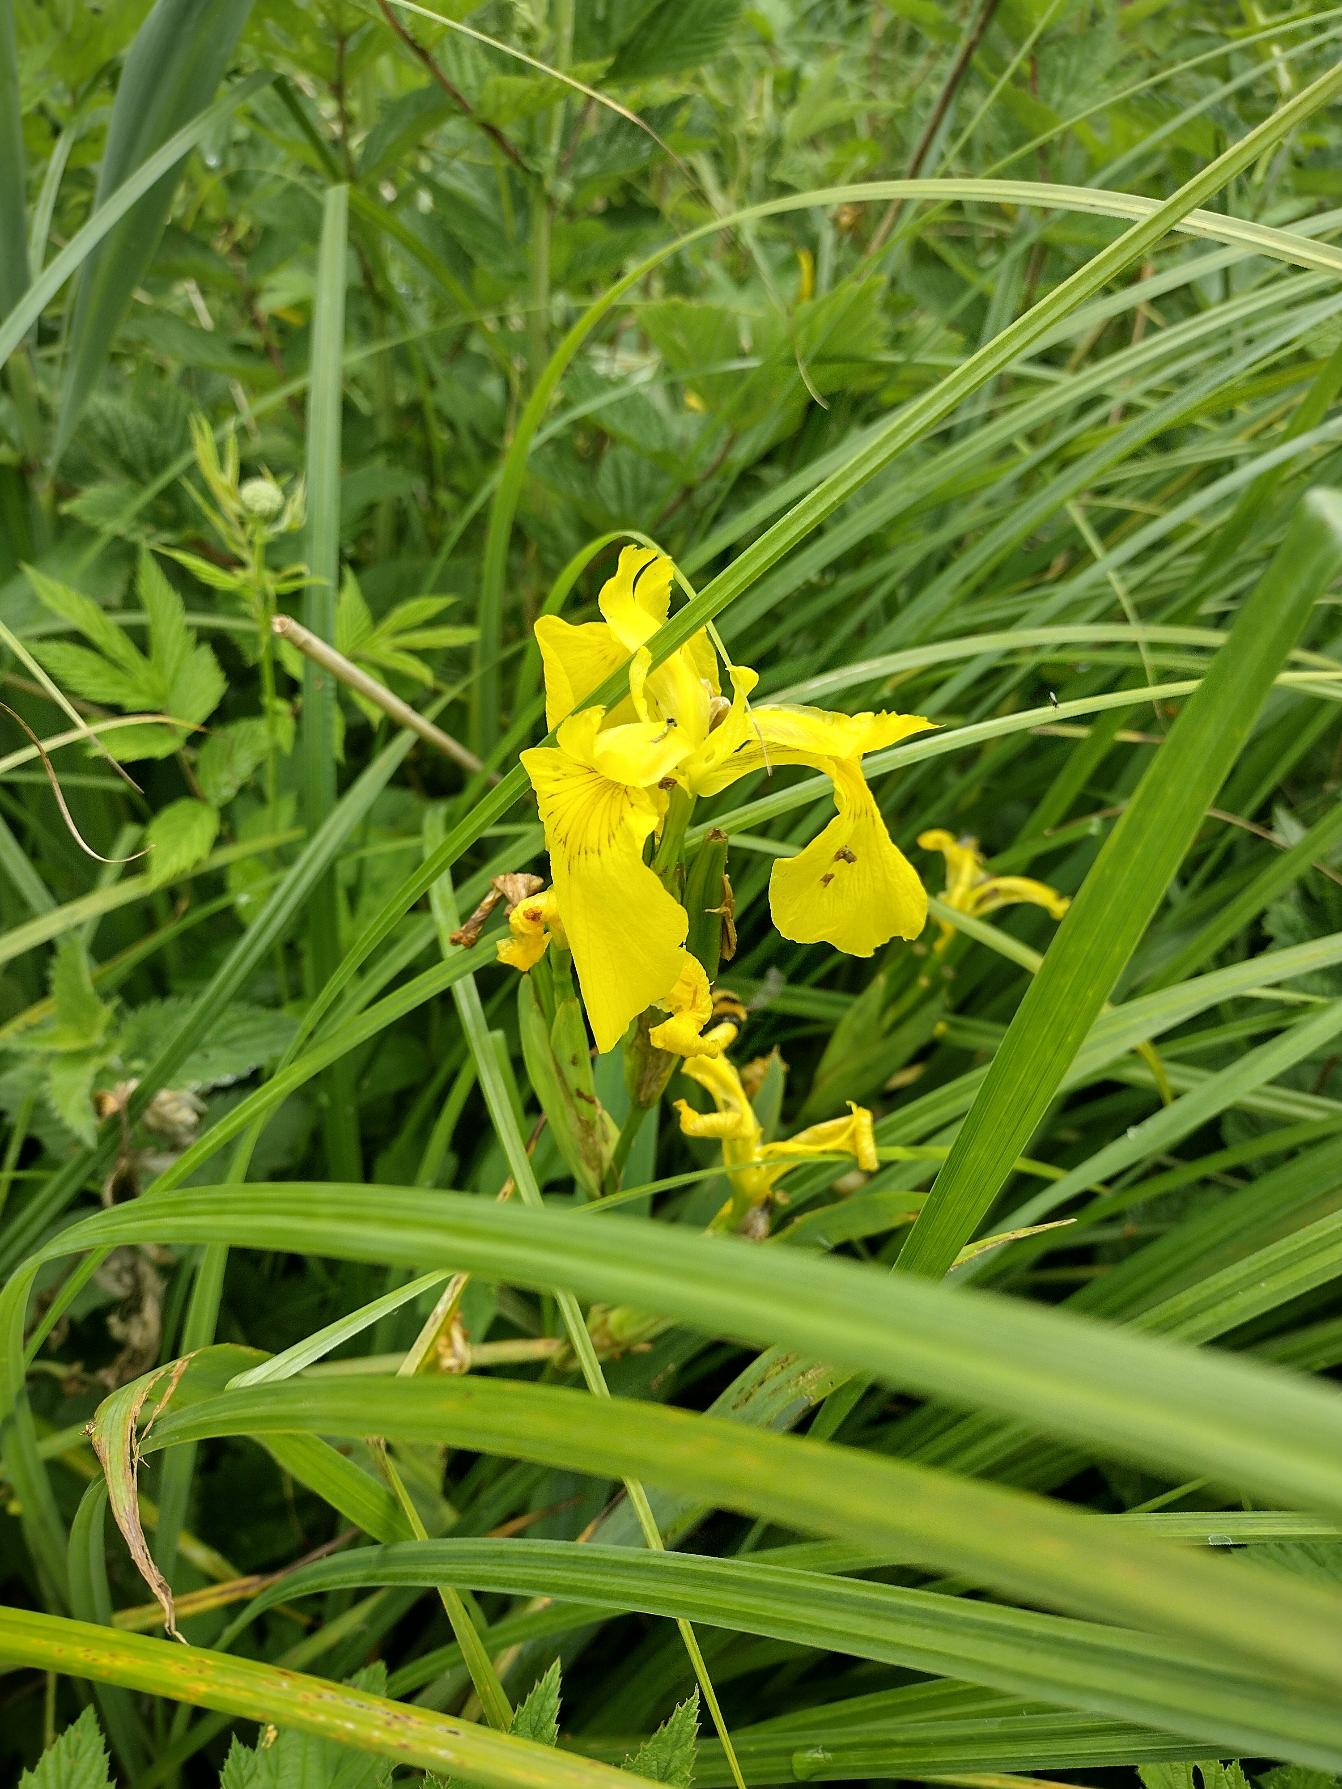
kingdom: Plantae
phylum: Tracheophyta
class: Liliopsida
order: Asparagales
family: Iridaceae
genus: Iris
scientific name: Iris pseudacorus
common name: Gul iris
